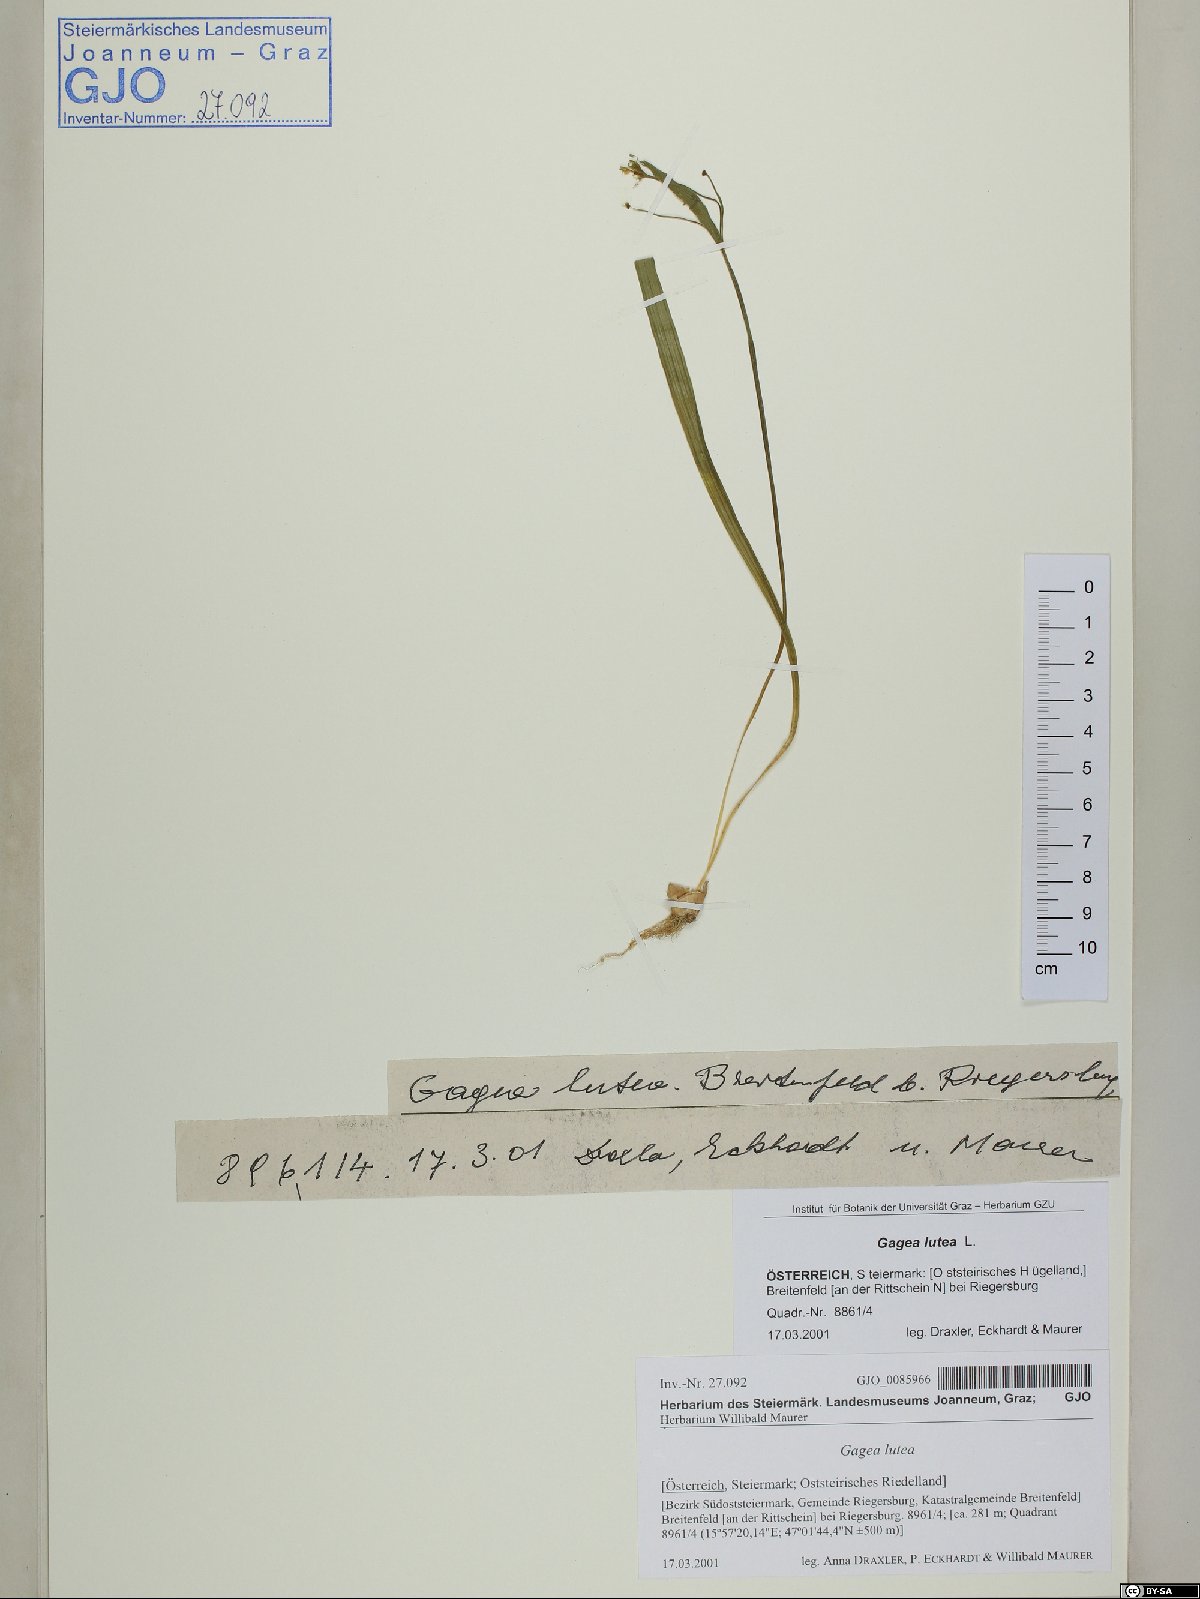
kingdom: Plantae
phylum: Tracheophyta
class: Liliopsida
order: Liliales
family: Liliaceae
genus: Gagea
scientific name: Gagea lutea
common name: Yellow star-of-bethlehem
